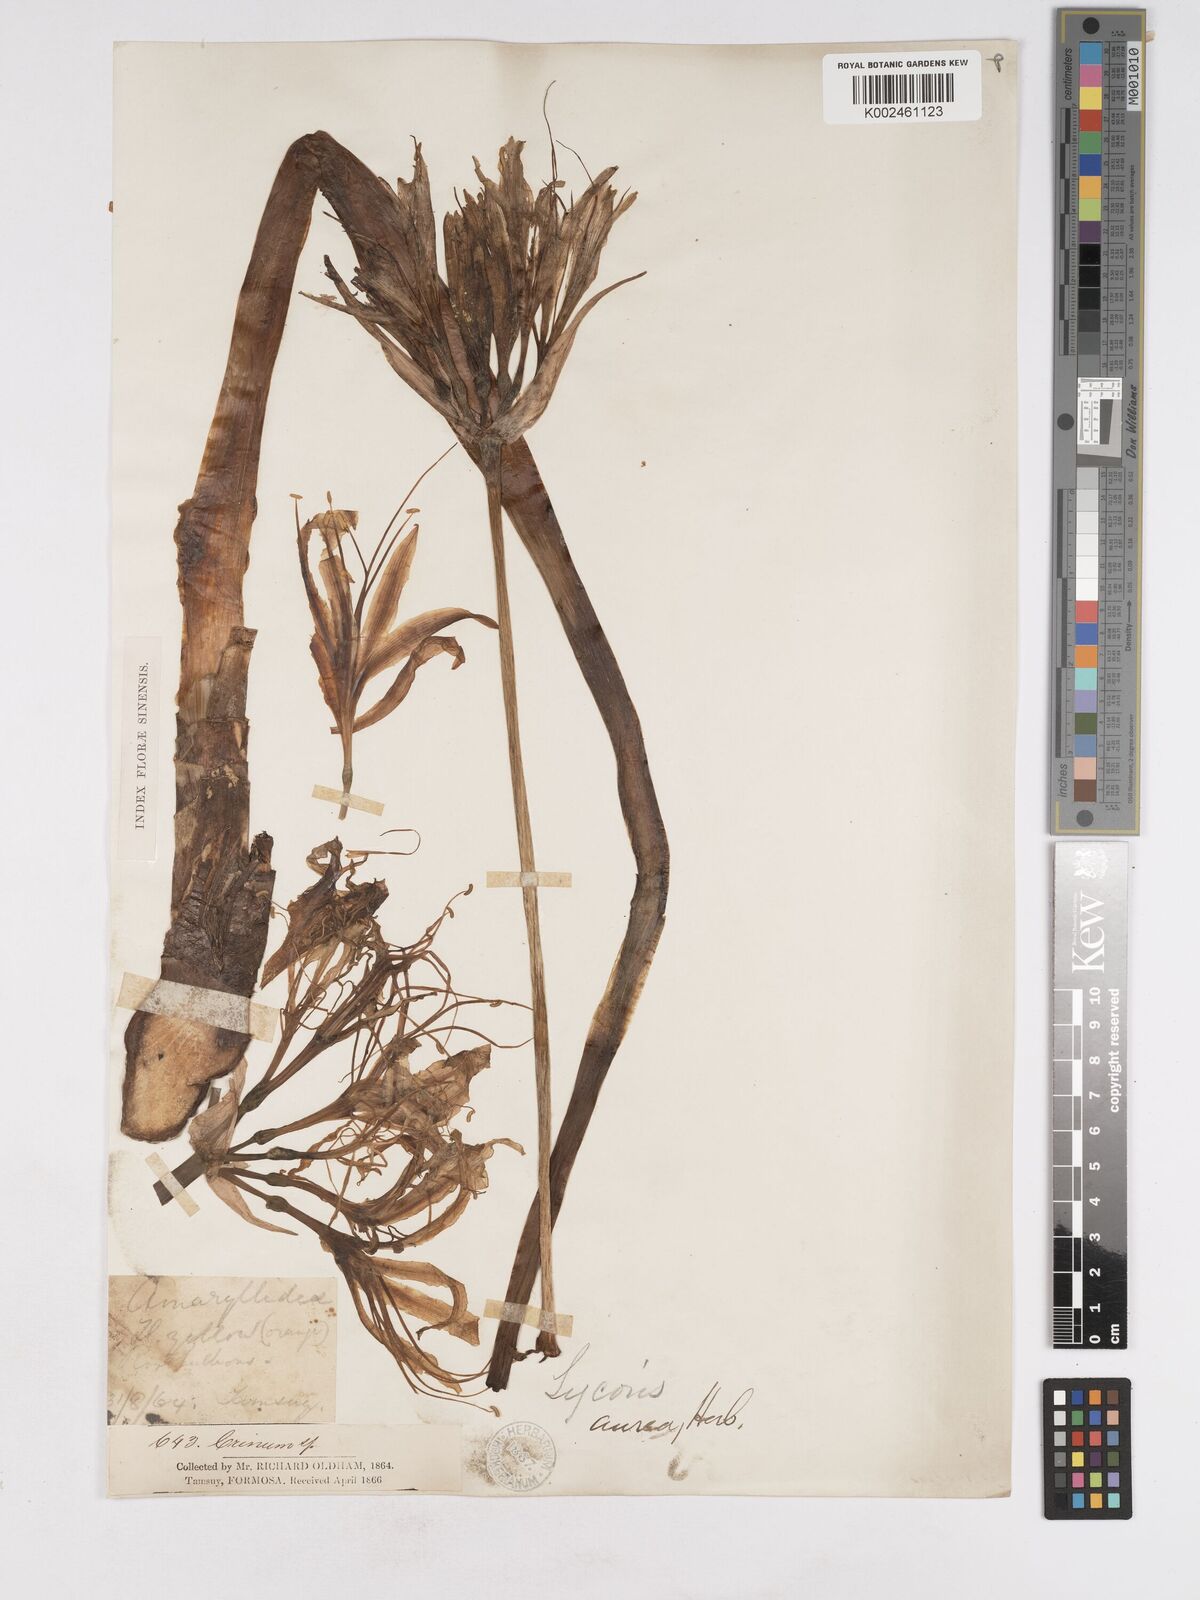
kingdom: Plantae
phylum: Tracheophyta
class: Liliopsida
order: Asparagales
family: Amaryllidaceae
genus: Lycoris
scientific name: Lycoris aurea
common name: Golden hurricane-lily
